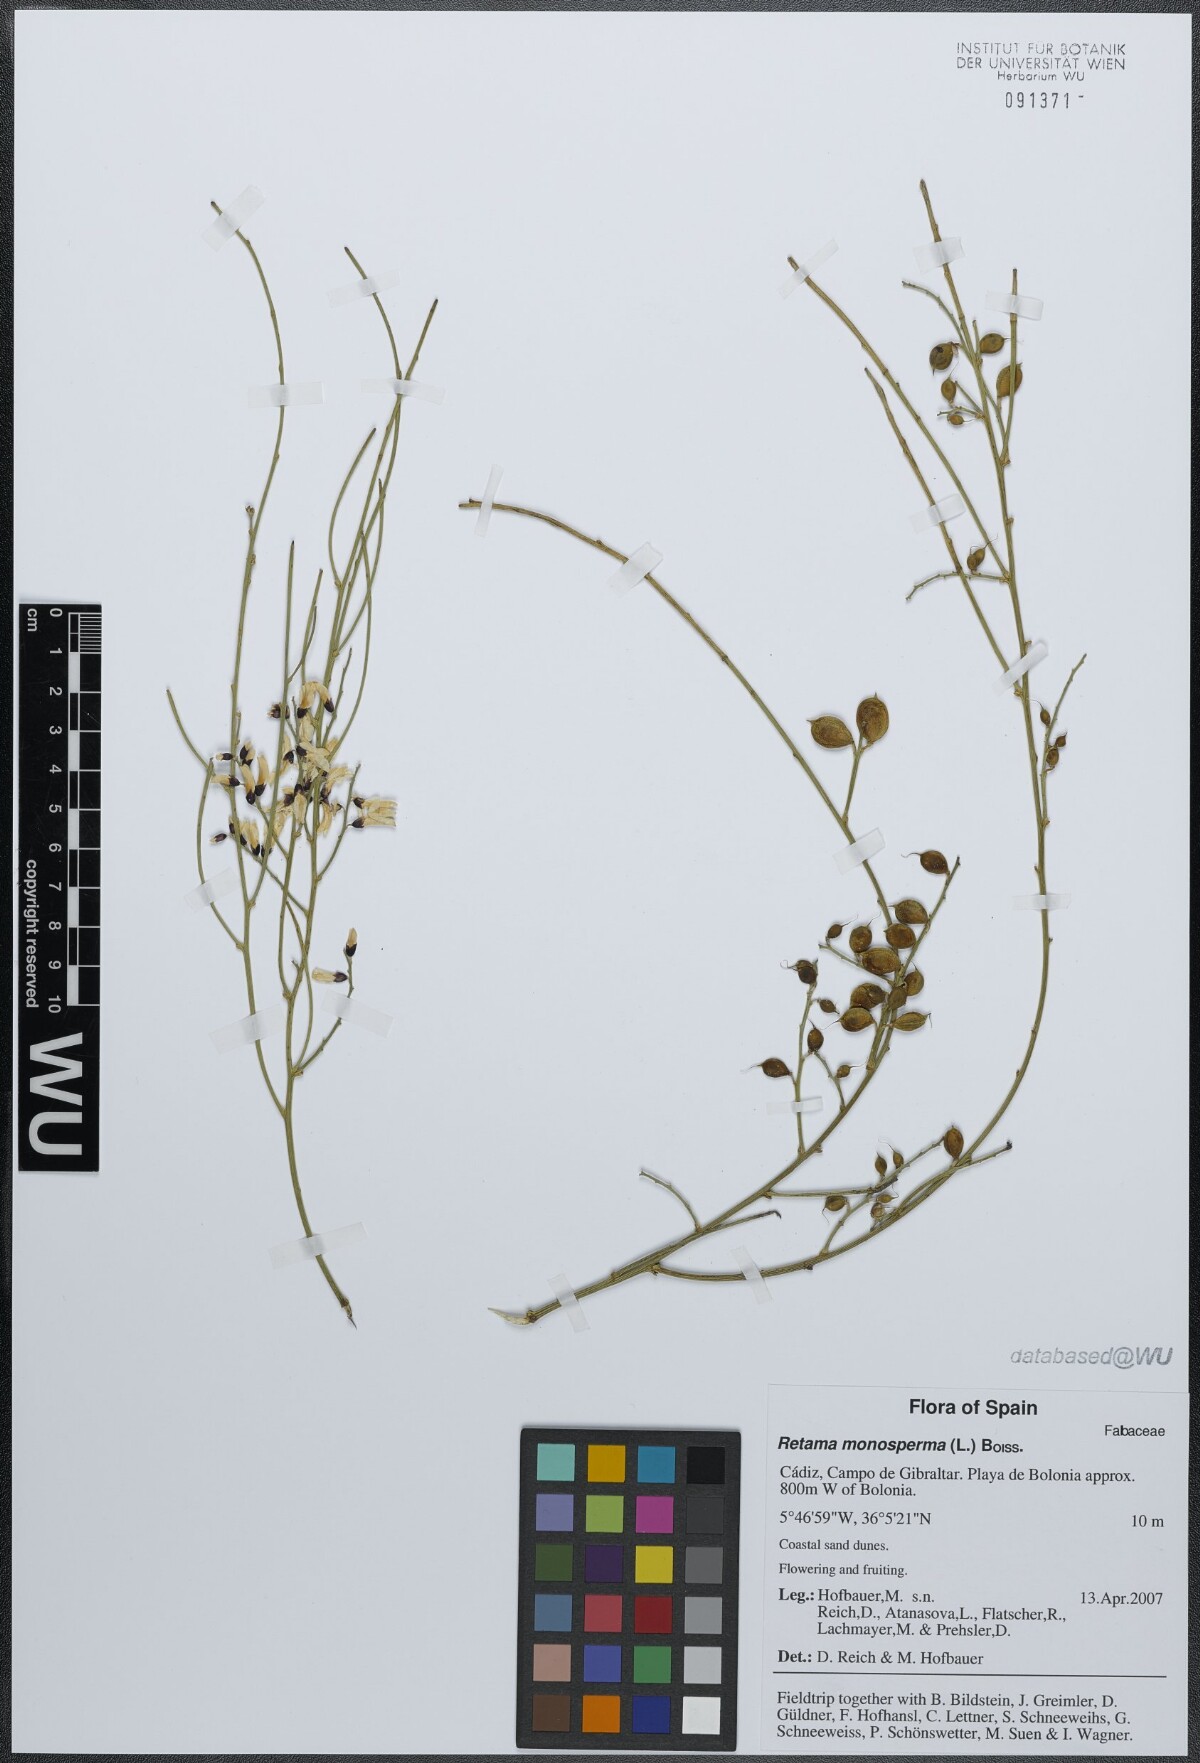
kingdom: Plantae
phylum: Tracheophyta
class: Magnoliopsida
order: Fabales
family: Fabaceae
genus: Retama
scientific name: Retama monosperma
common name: Bridal broom
